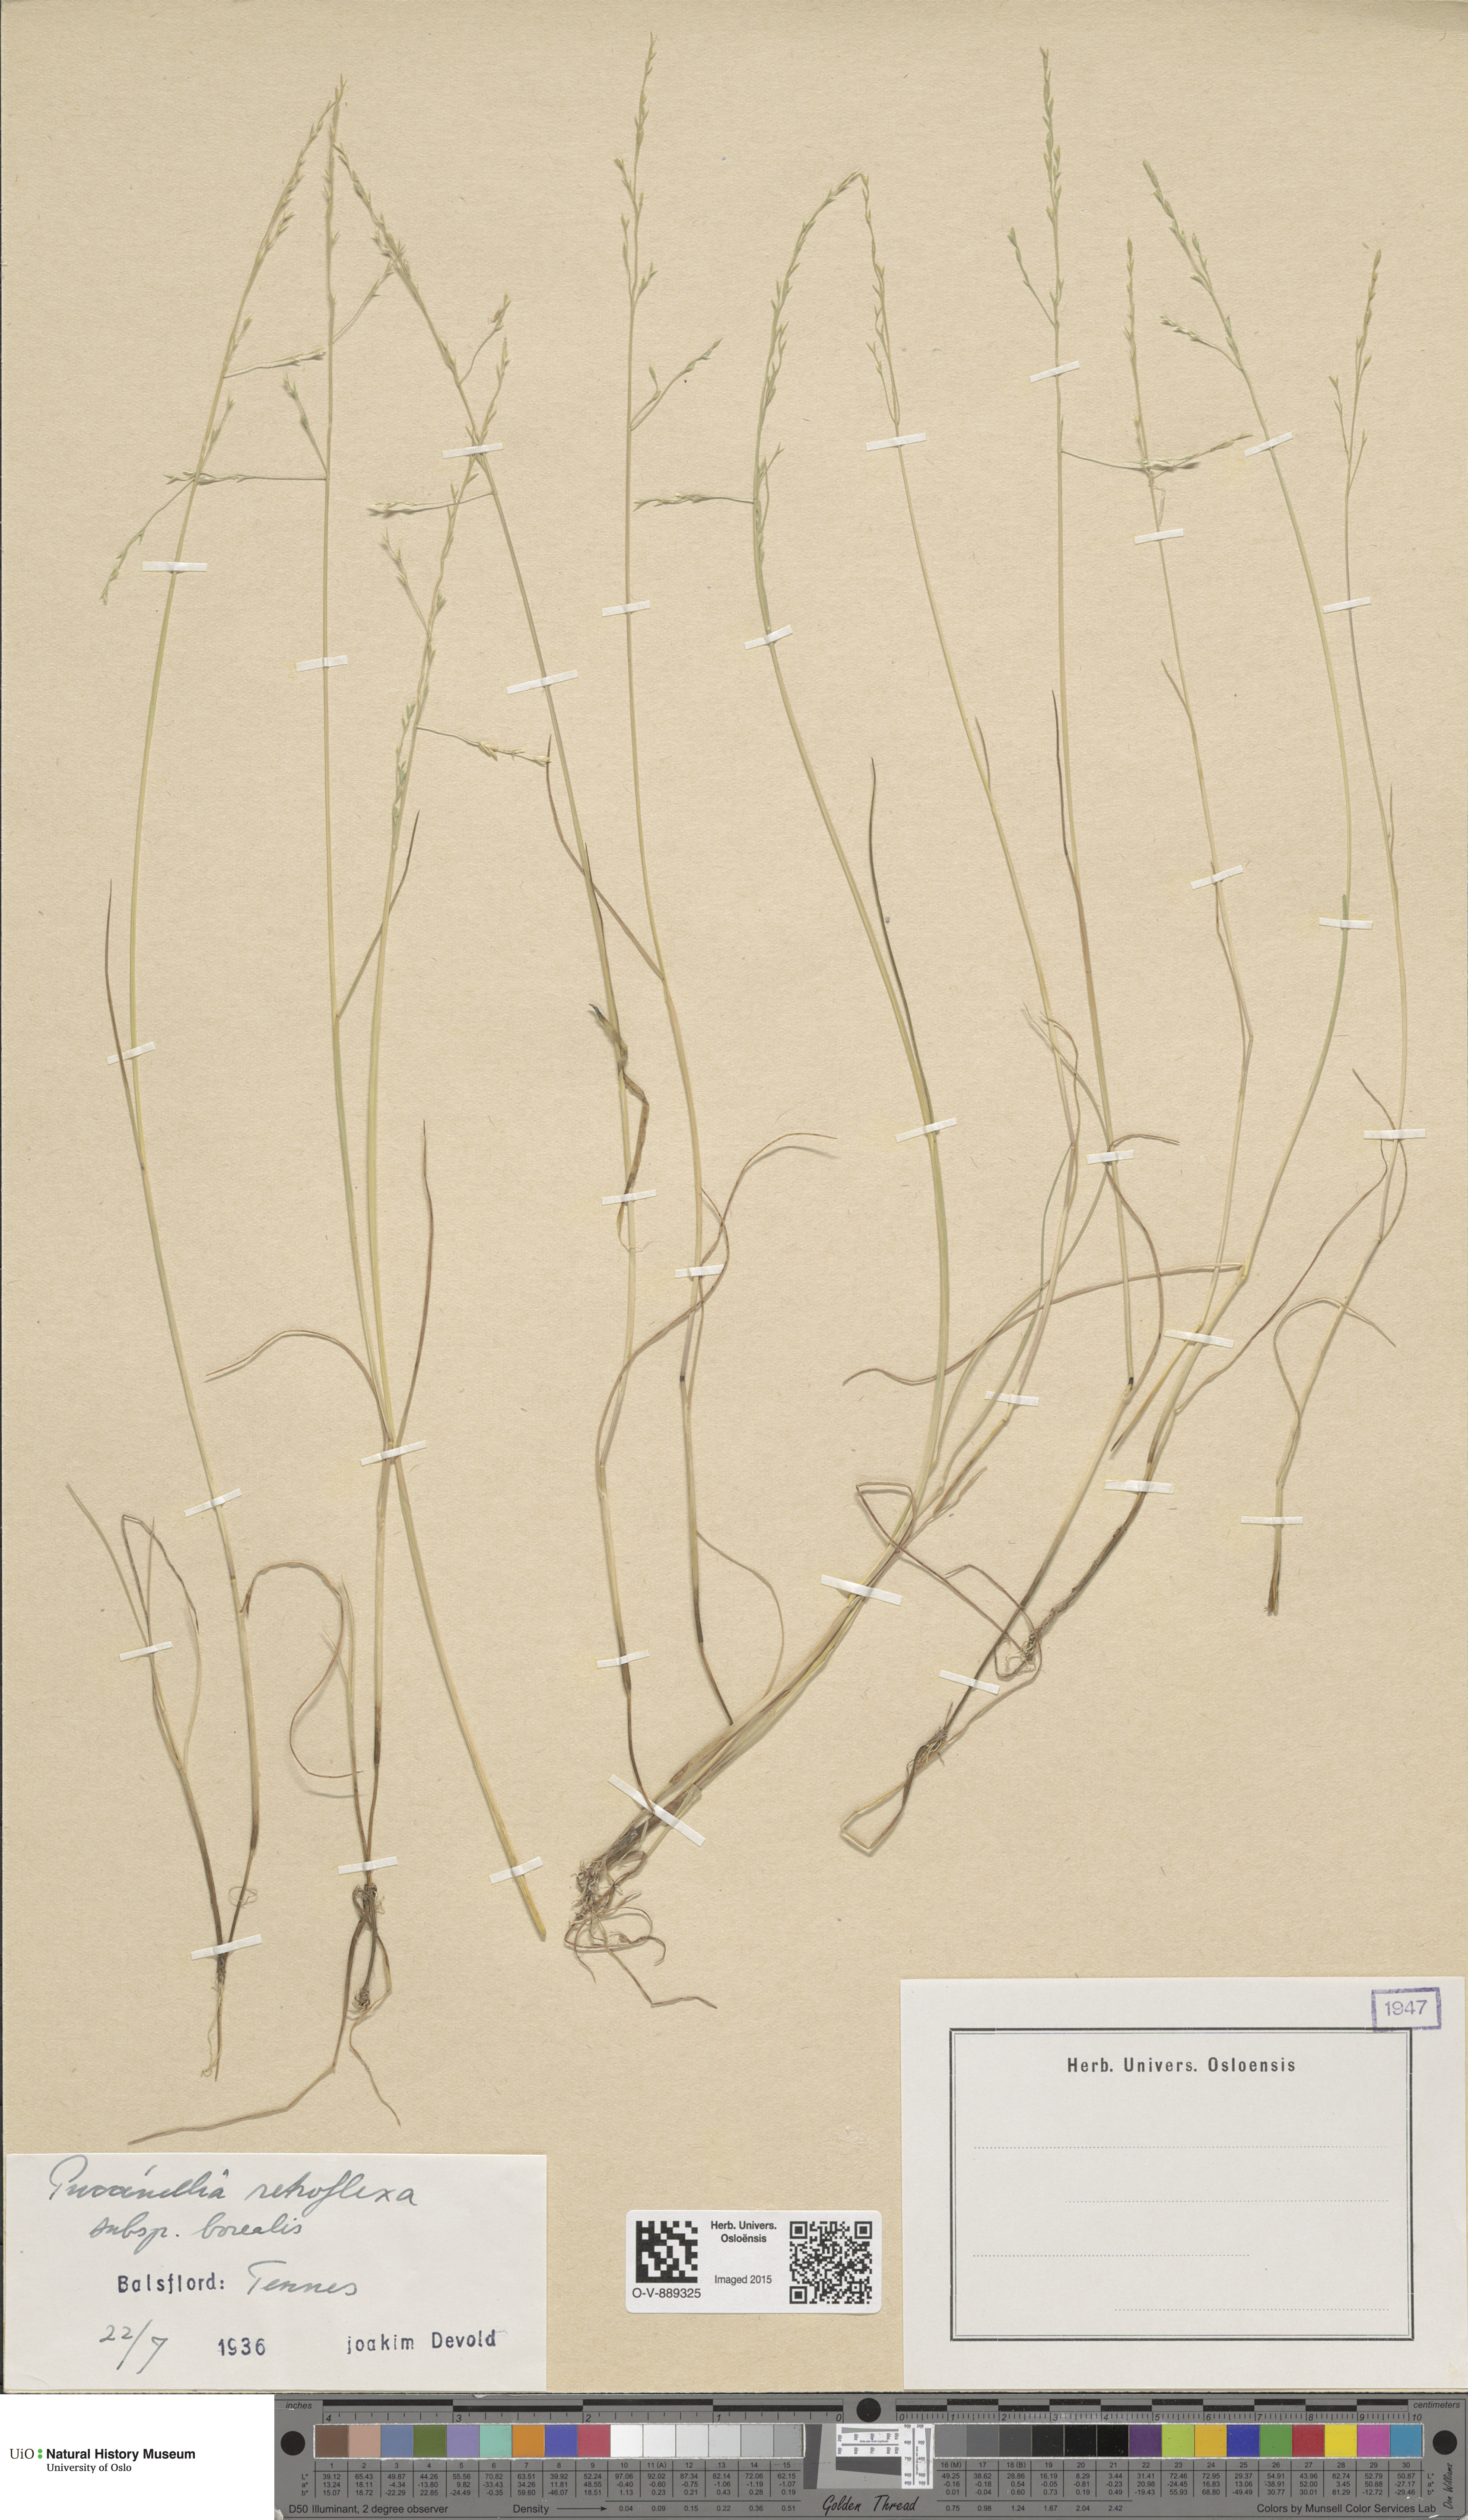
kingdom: Plantae
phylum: Tracheophyta
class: Liliopsida
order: Poales
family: Poaceae
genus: Puccinellia
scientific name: Puccinellia distans
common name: Weeping alkaligrass
